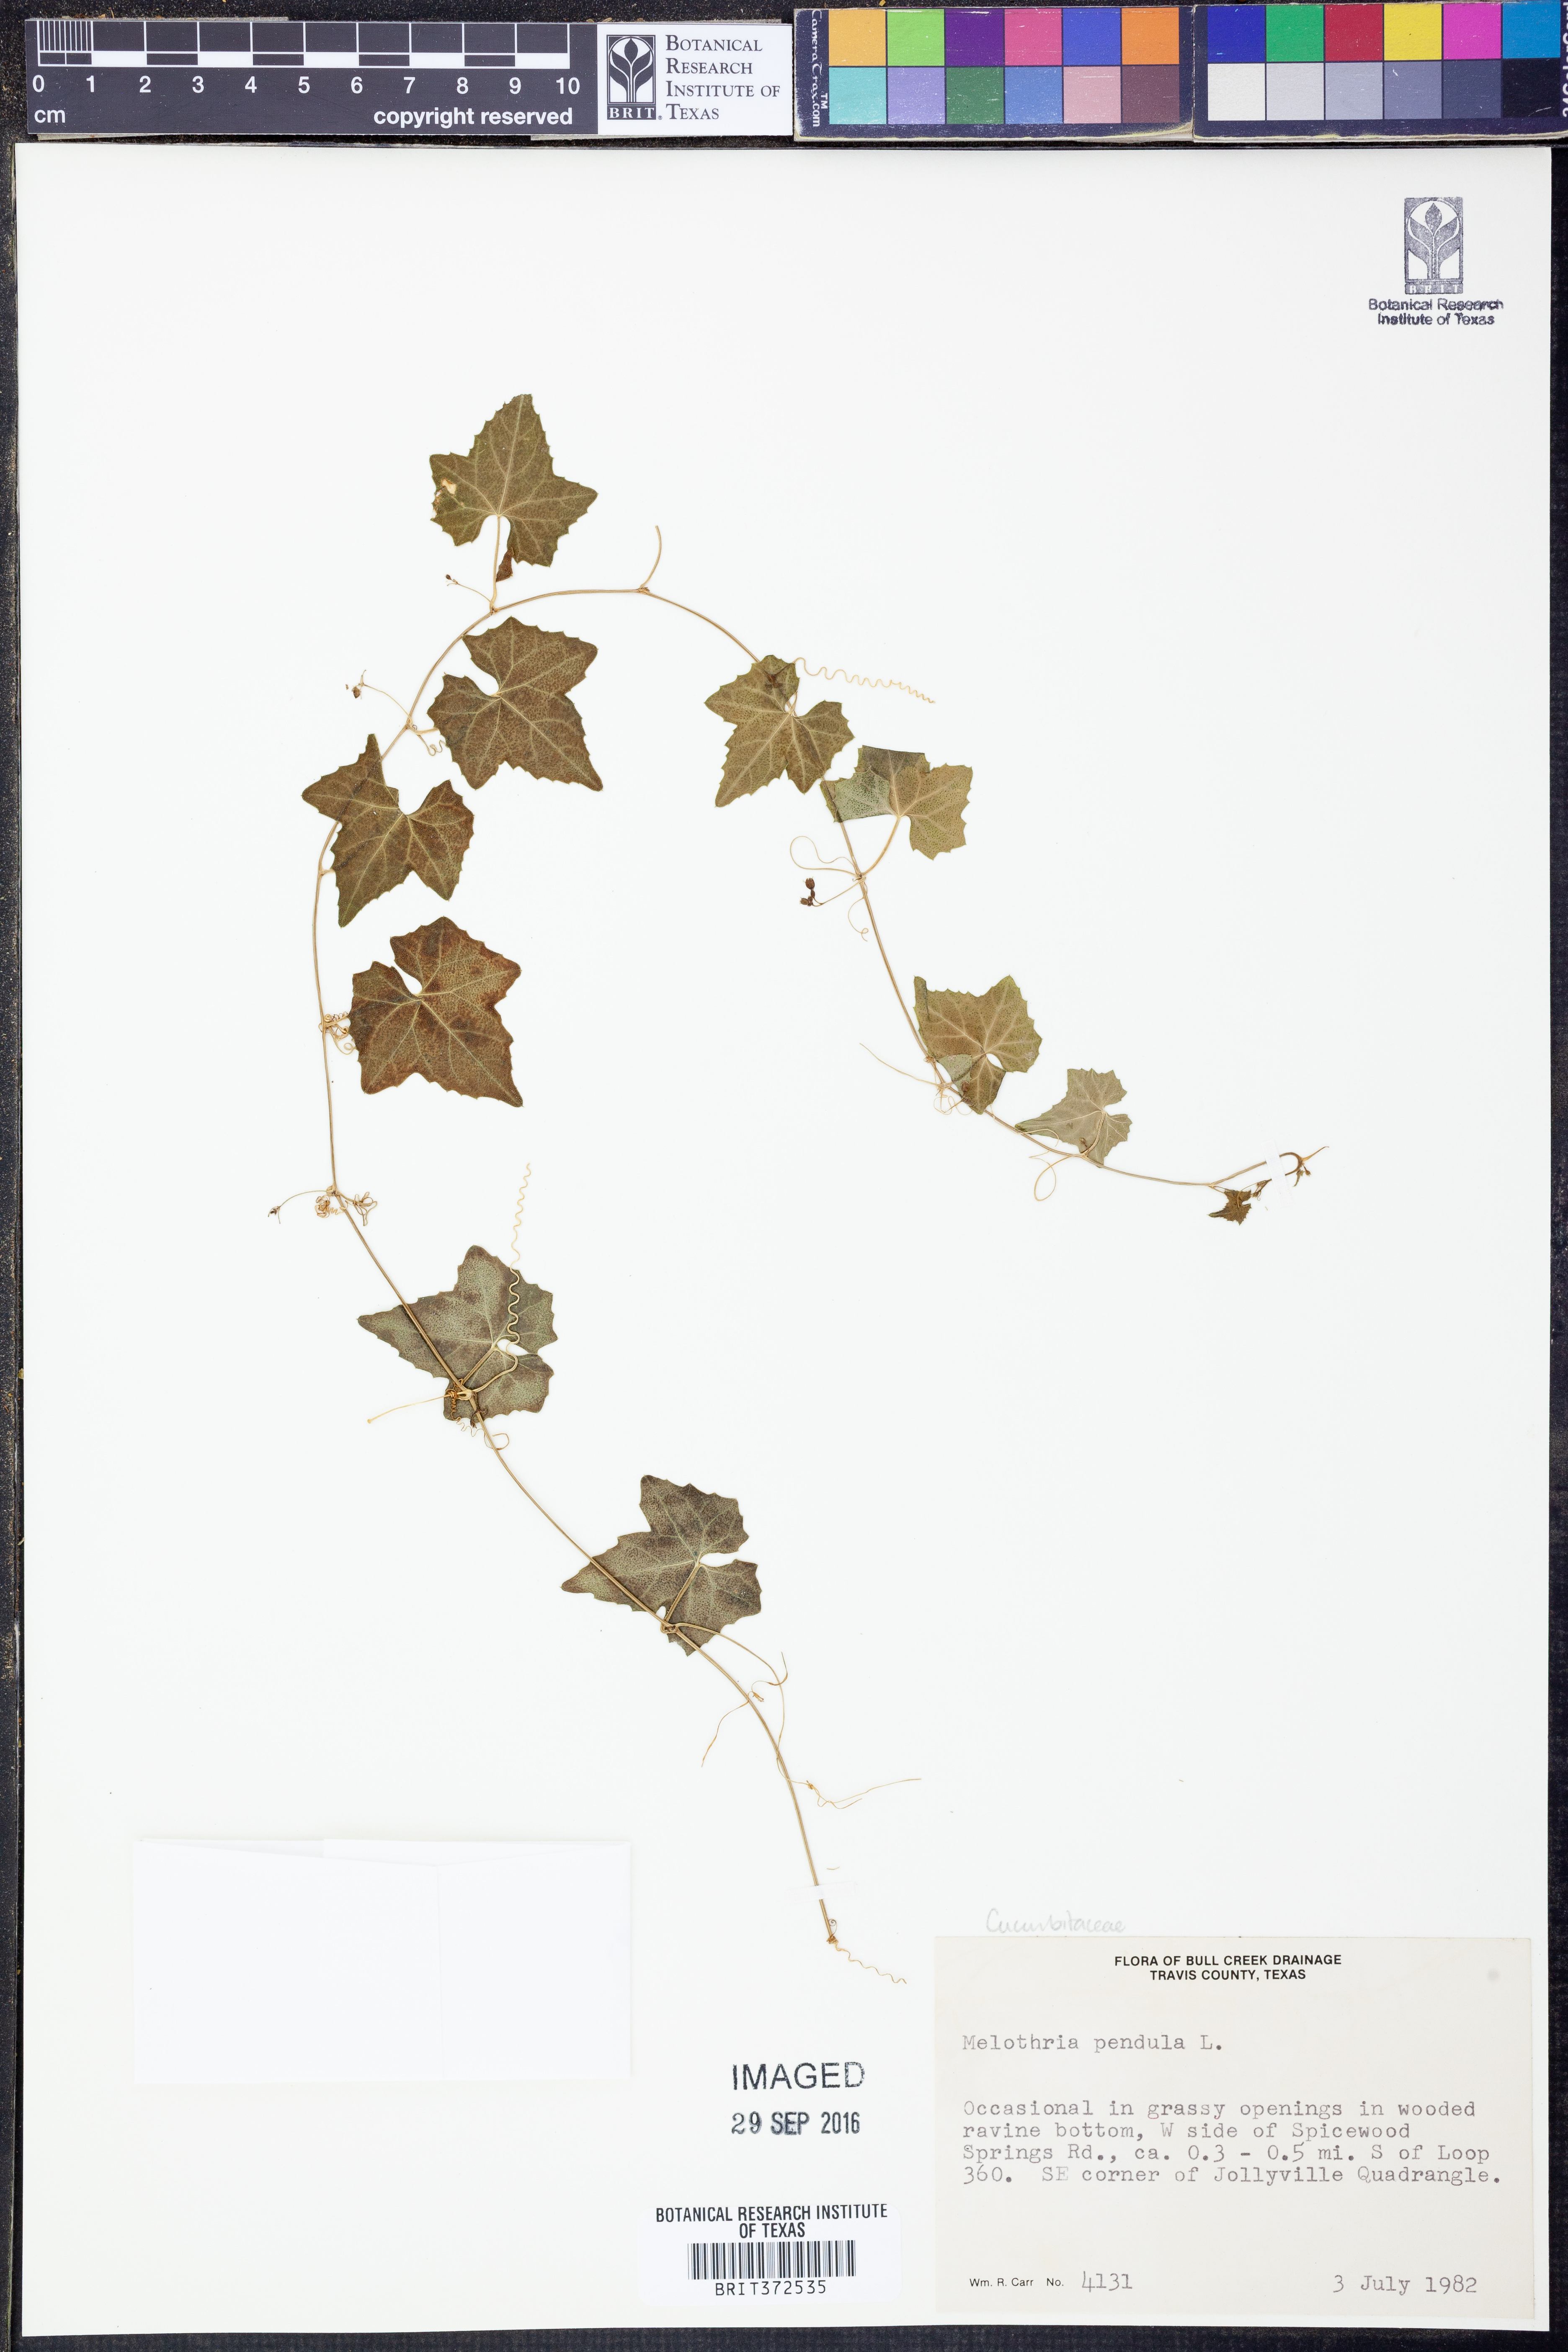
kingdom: Plantae
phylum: Tracheophyta
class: Magnoliopsida
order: Cucurbitales
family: Cucurbitaceae
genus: Melothria
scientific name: Melothria pendula
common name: Creeping-cucumber
